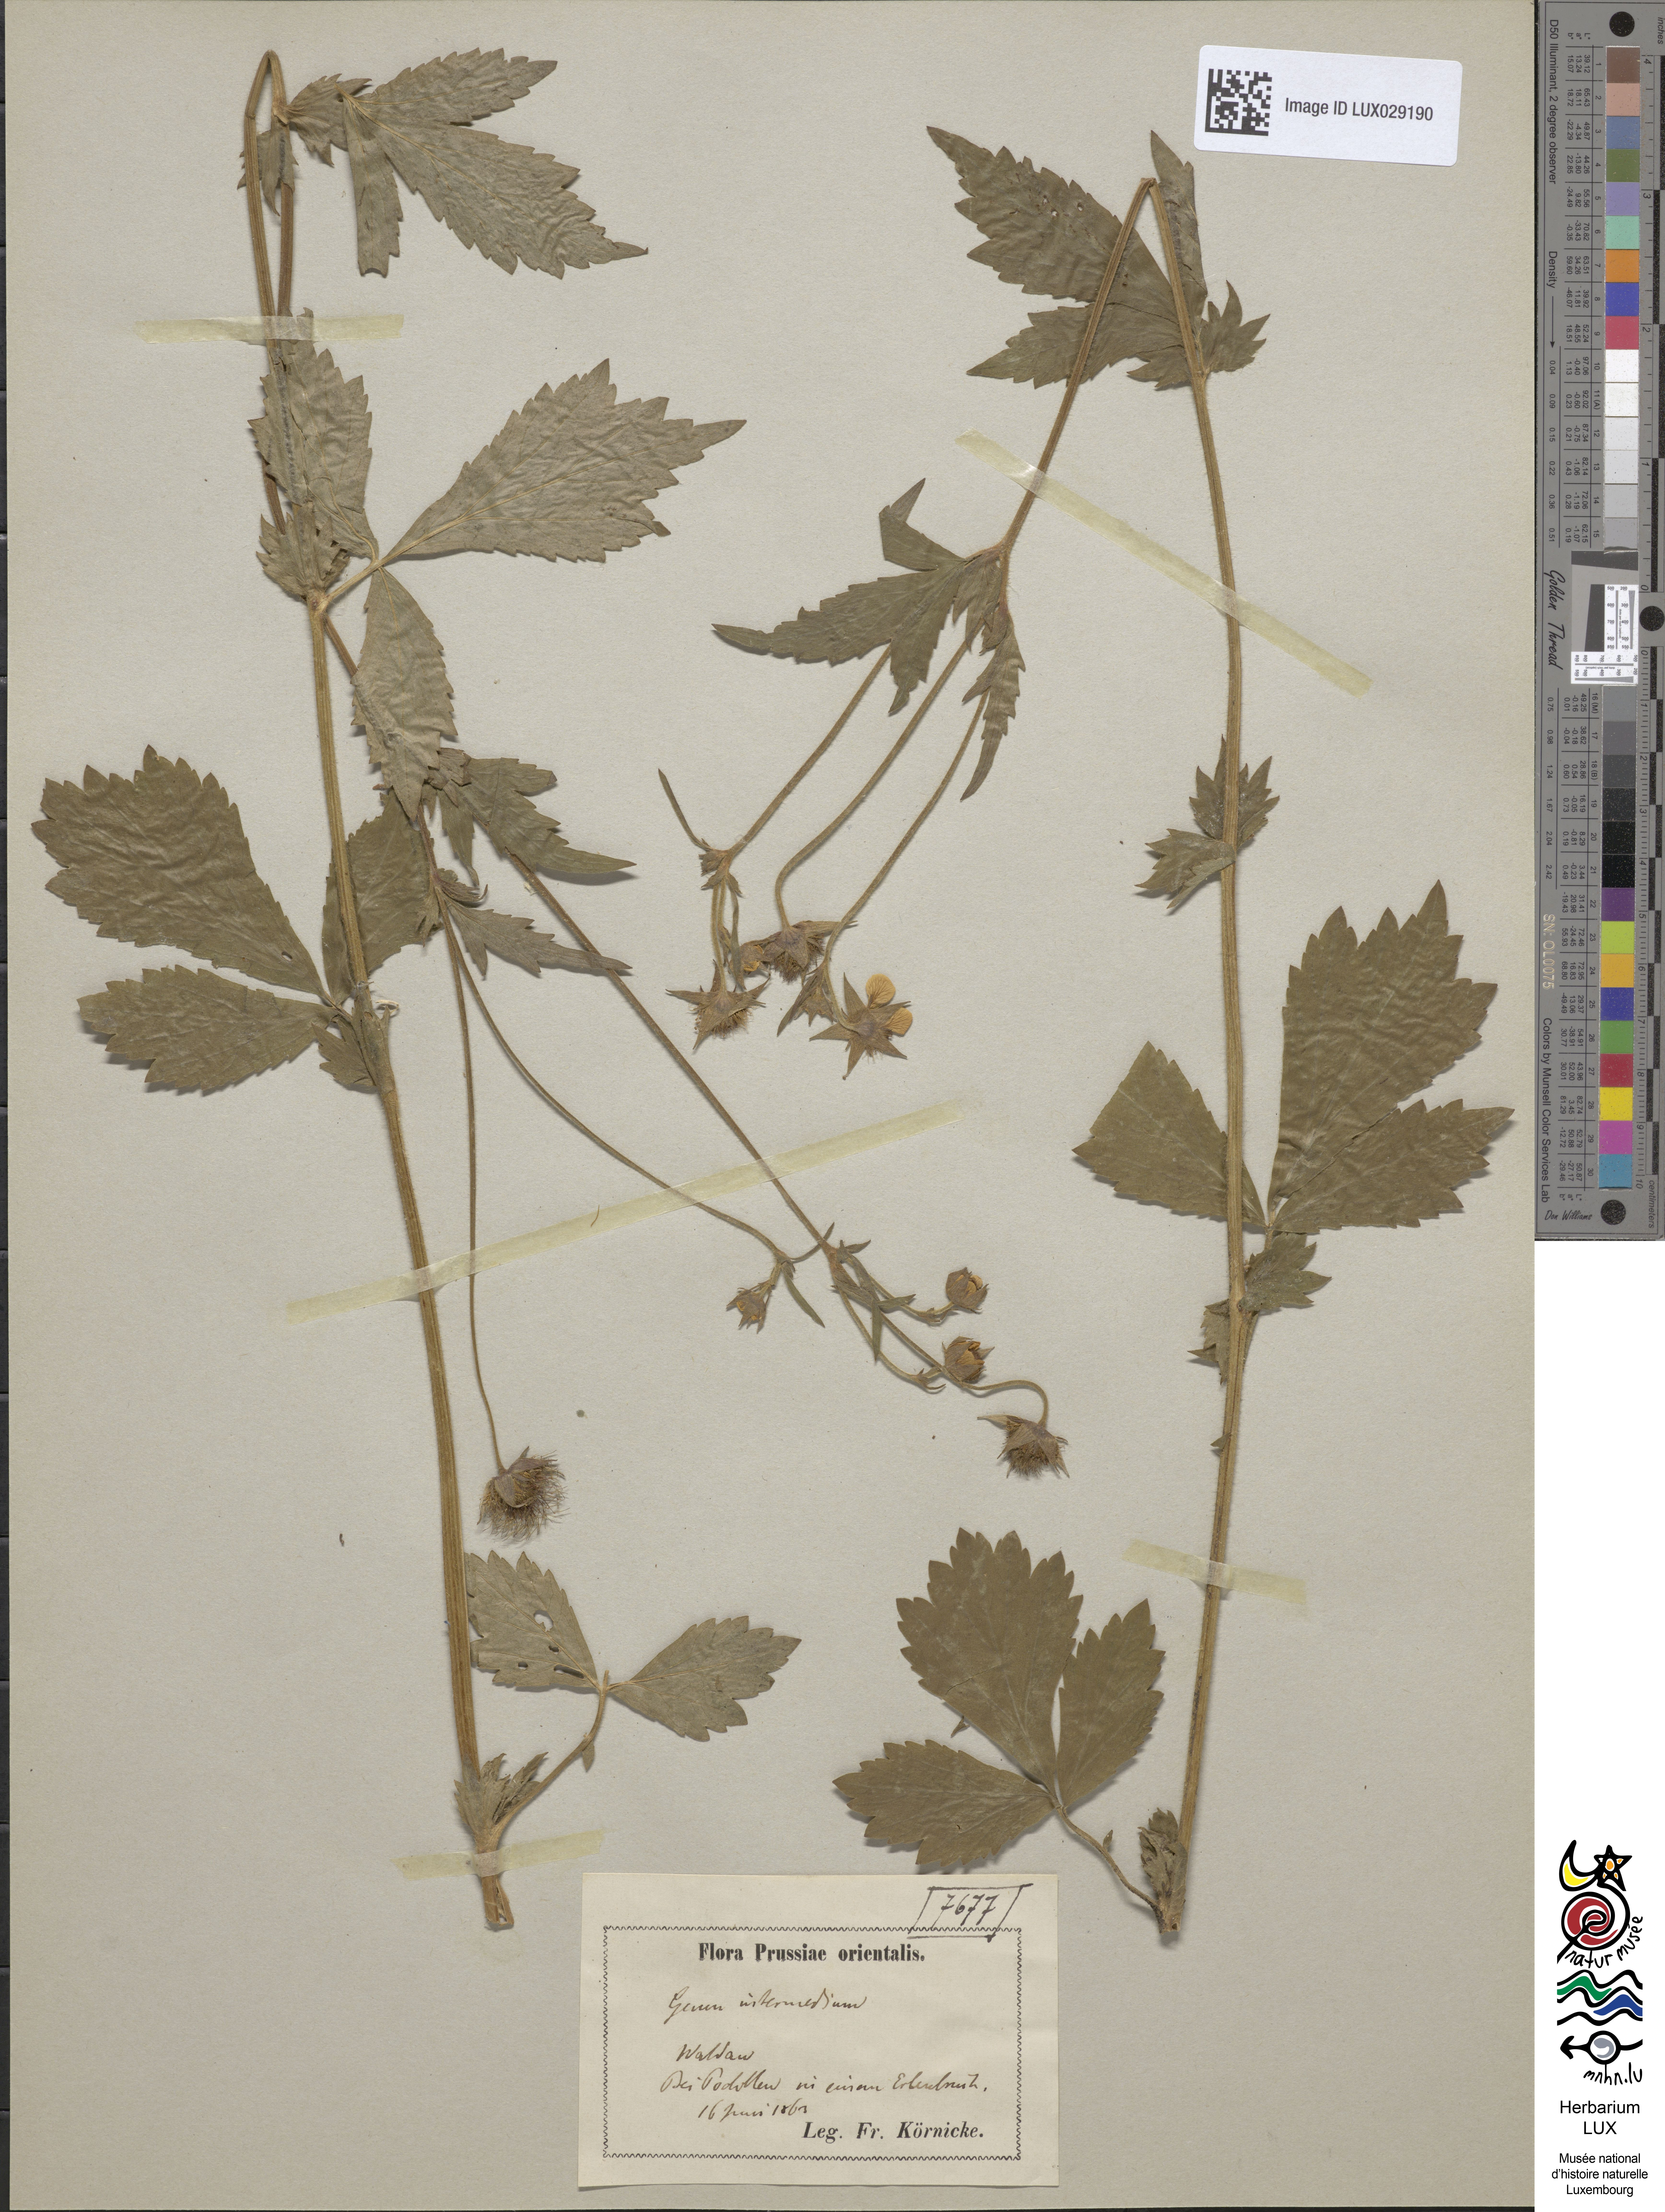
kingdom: Plantae
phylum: Tracheophyta
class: Magnoliopsida
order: Rosales
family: Rosaceae
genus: Geum
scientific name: Geum intermedium
